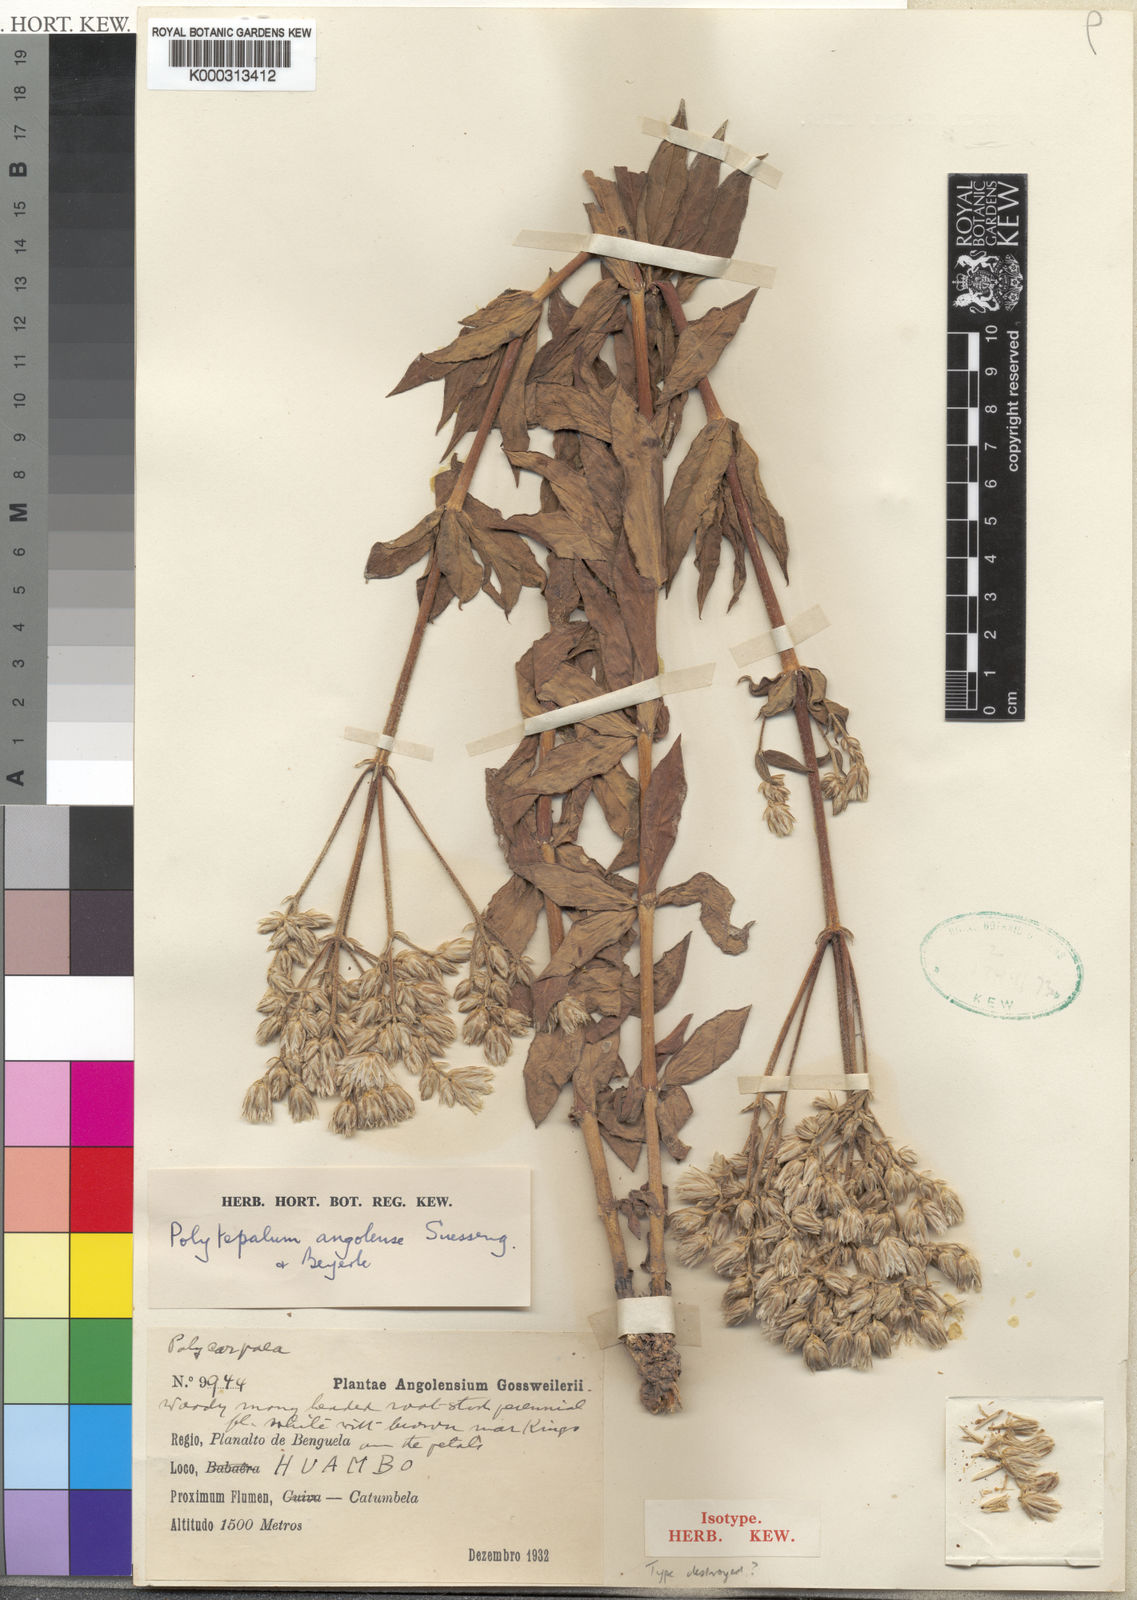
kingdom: Plantae
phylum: Tracheophyta
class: Magnoliopsida
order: Caryophyllales
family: Caryophyllaceae
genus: Polytepalum
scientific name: Polytepalum angolense
